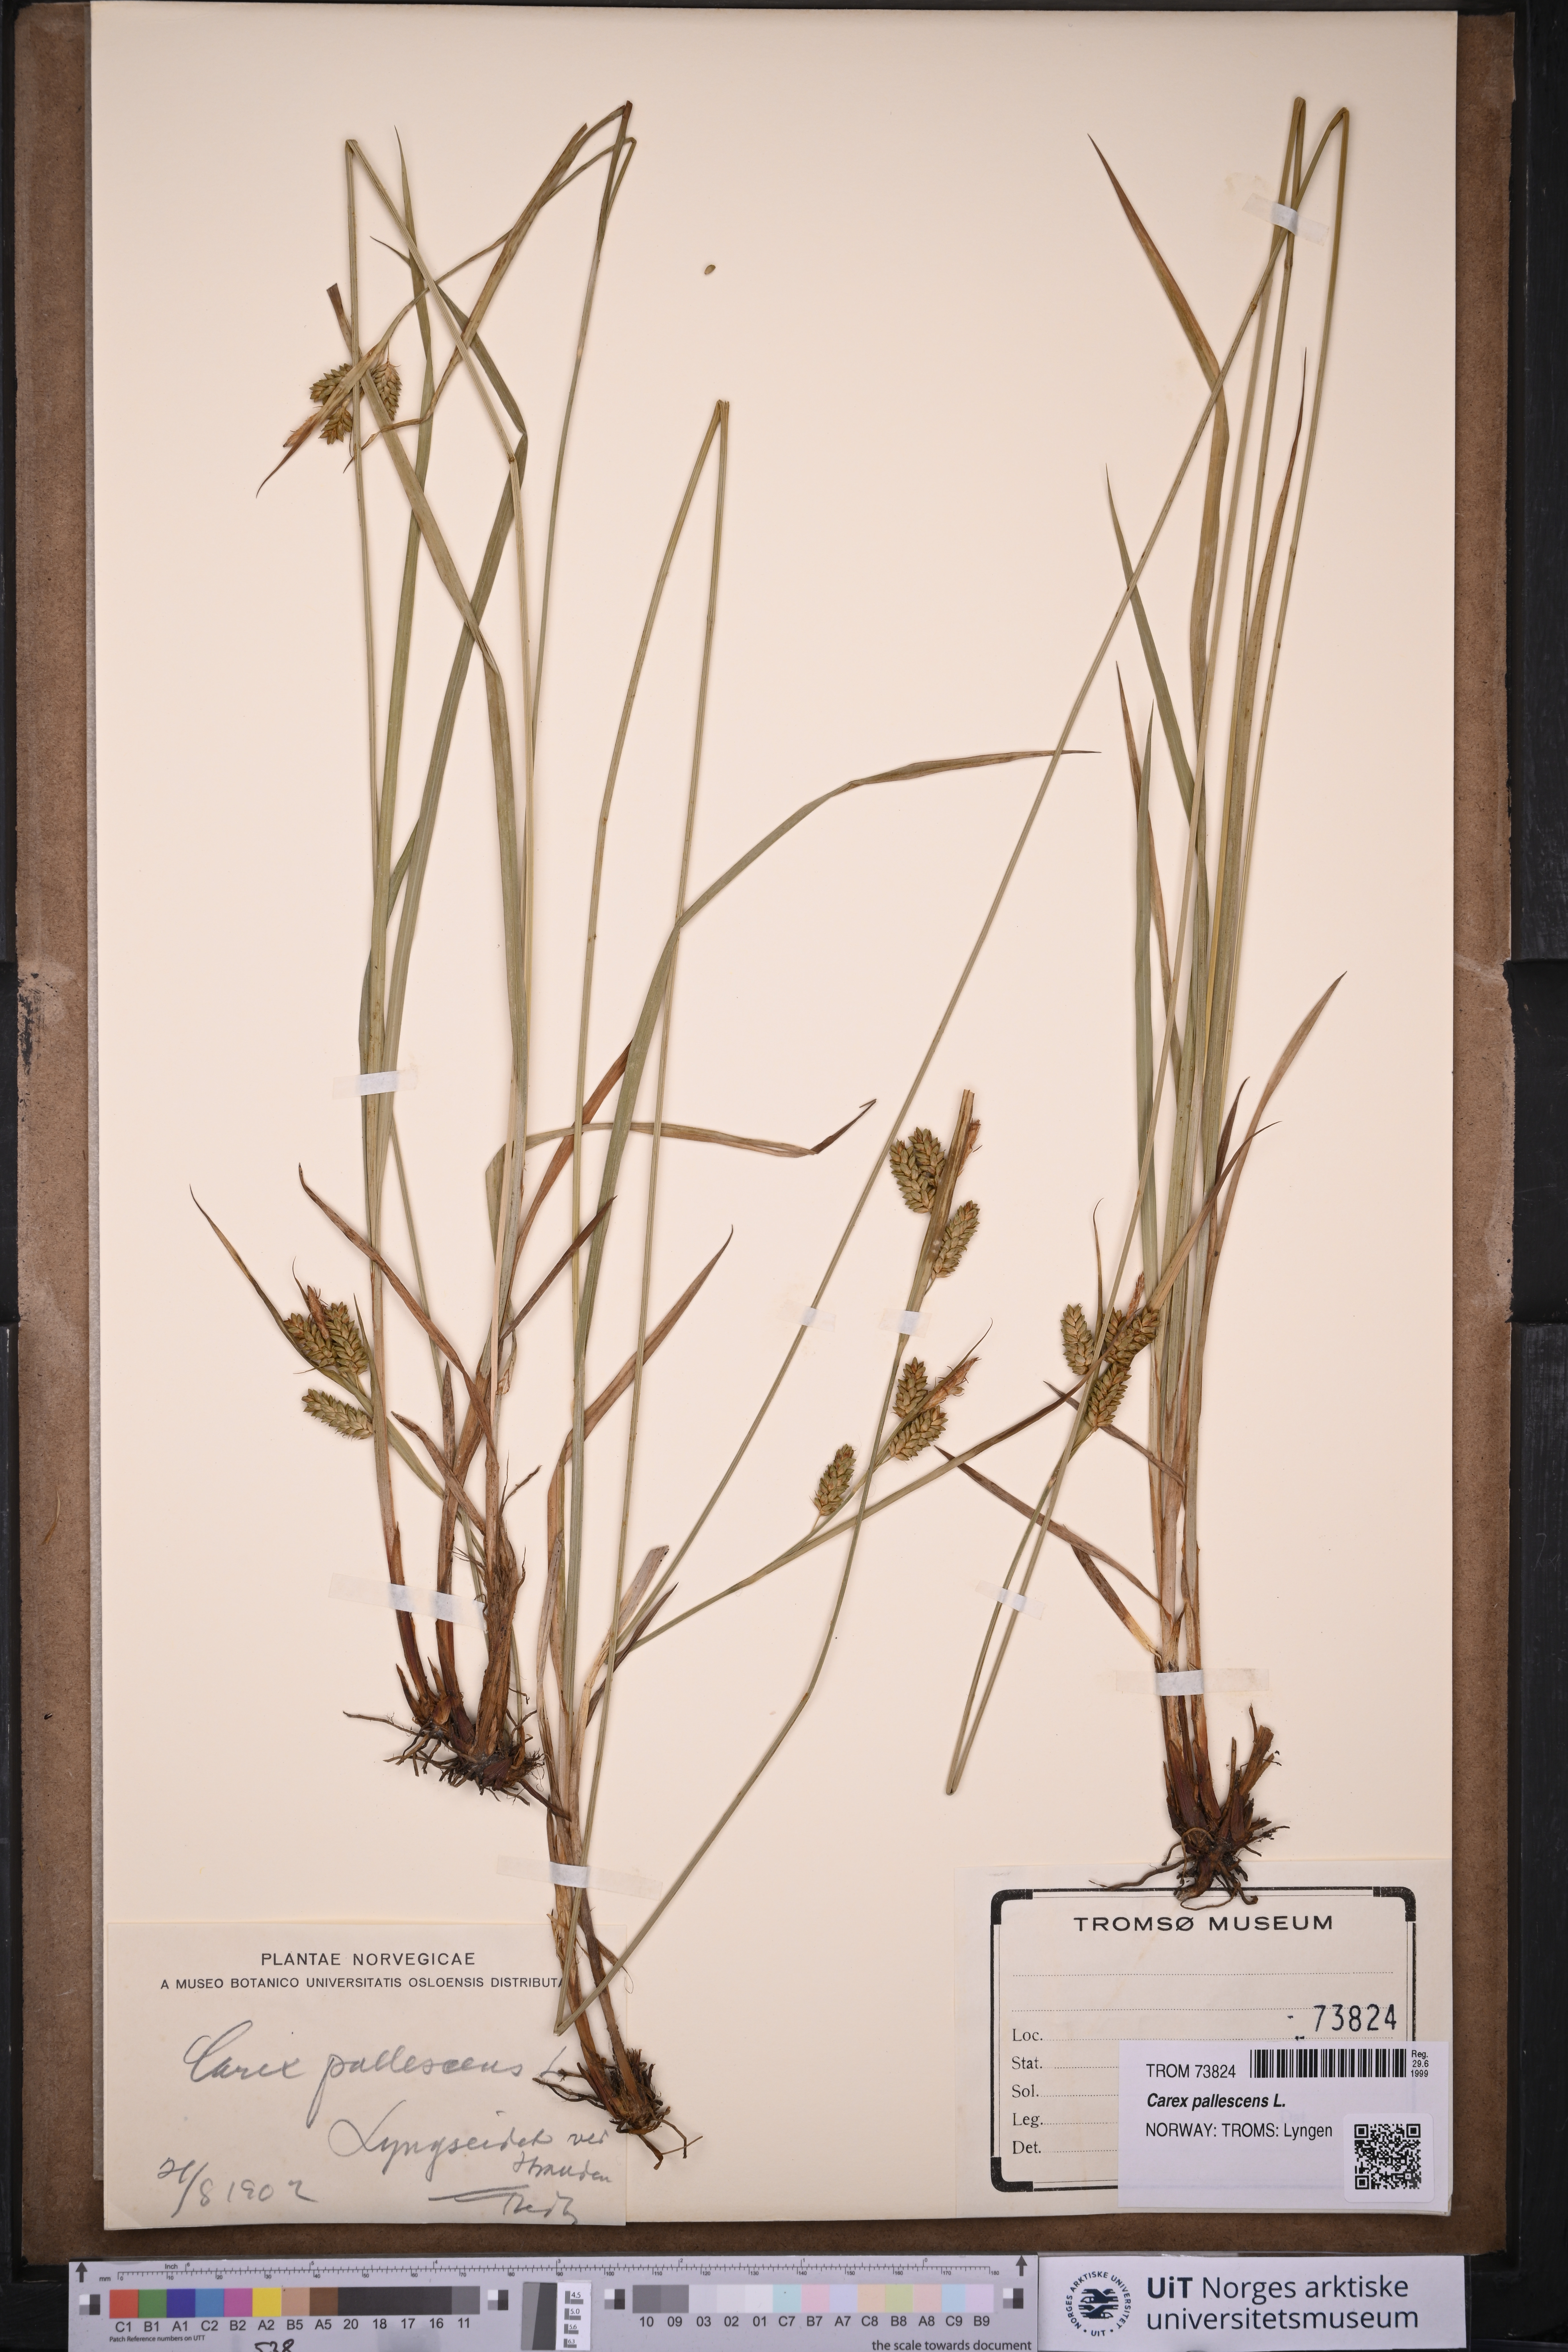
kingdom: Plantae
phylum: Tracheophyta
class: Liliopsida
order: Poales
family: Cyperaceae
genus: Carex
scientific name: Carex pallescens
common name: Pale sedge
